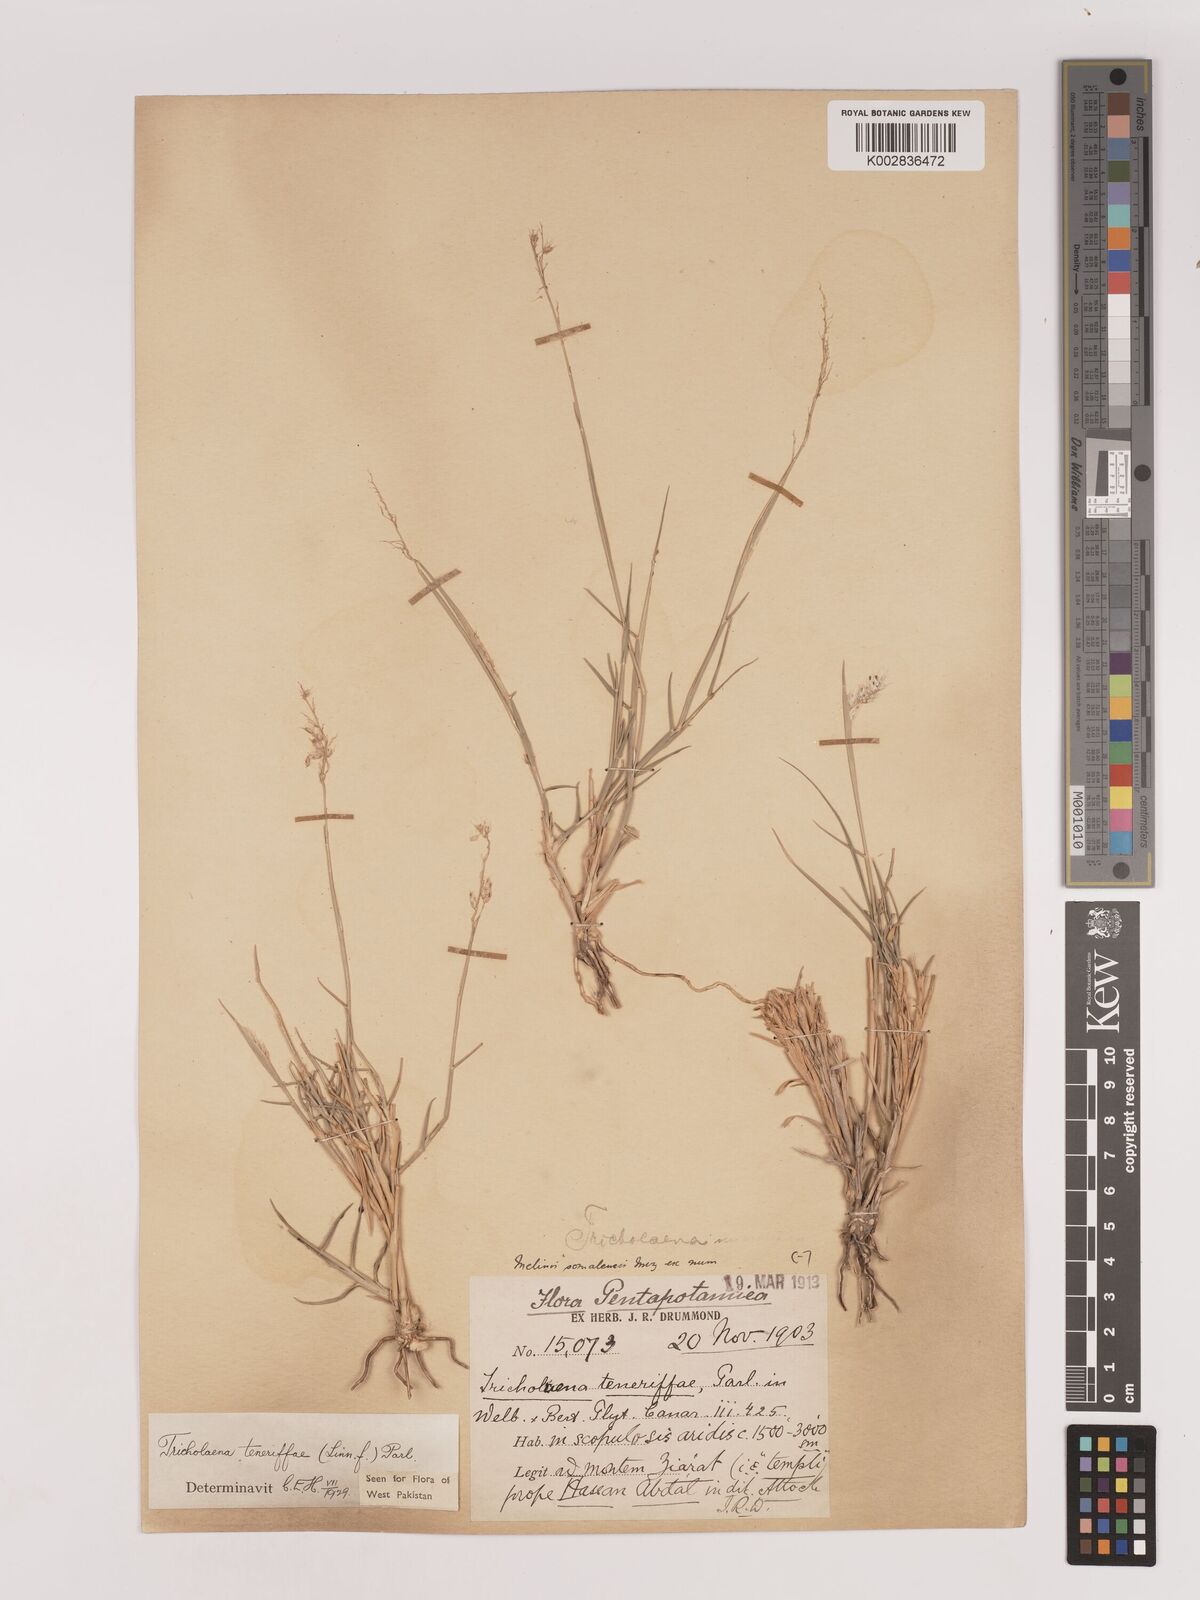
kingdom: Plantae
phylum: Tracheophyta
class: Liliopsida
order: Poales
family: Poaceae
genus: Tricholaena
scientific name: Tricholaena teneriffae
